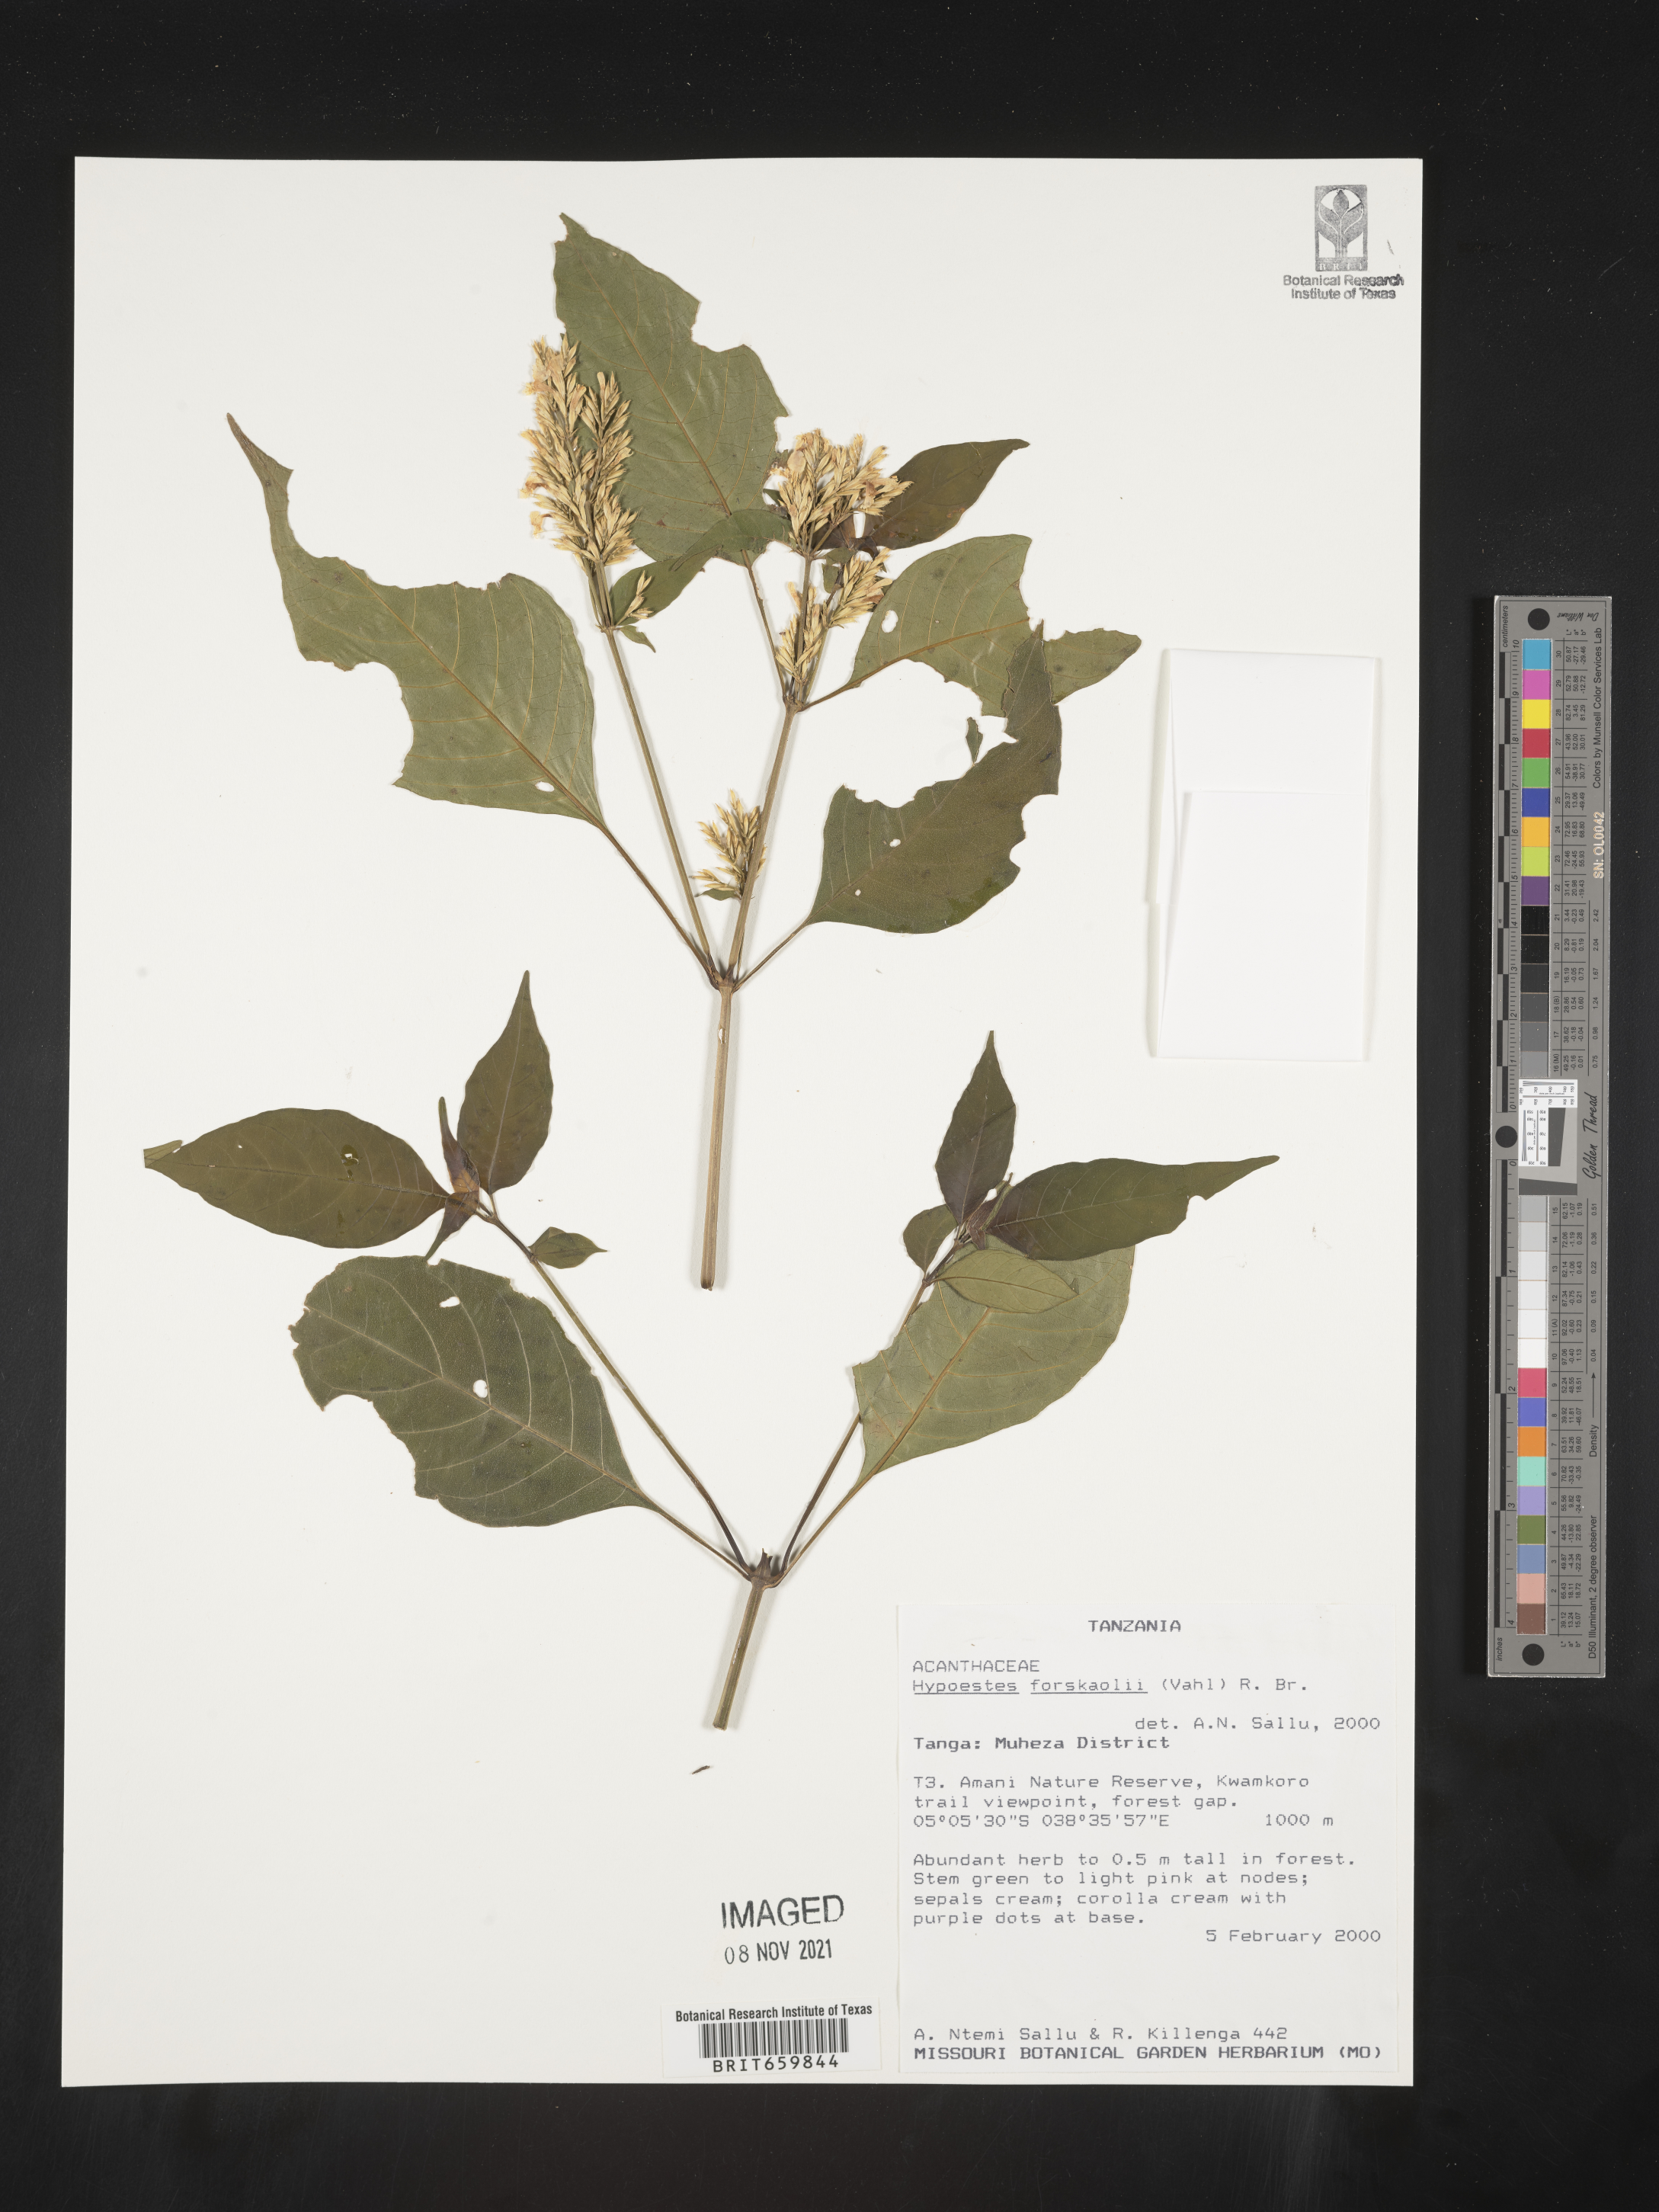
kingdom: Plantae
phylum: Tracheophyta
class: Magnoliopsida
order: Lamiales
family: Acanthaceae
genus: Hypoestes
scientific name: Hypoestes forskaolii
